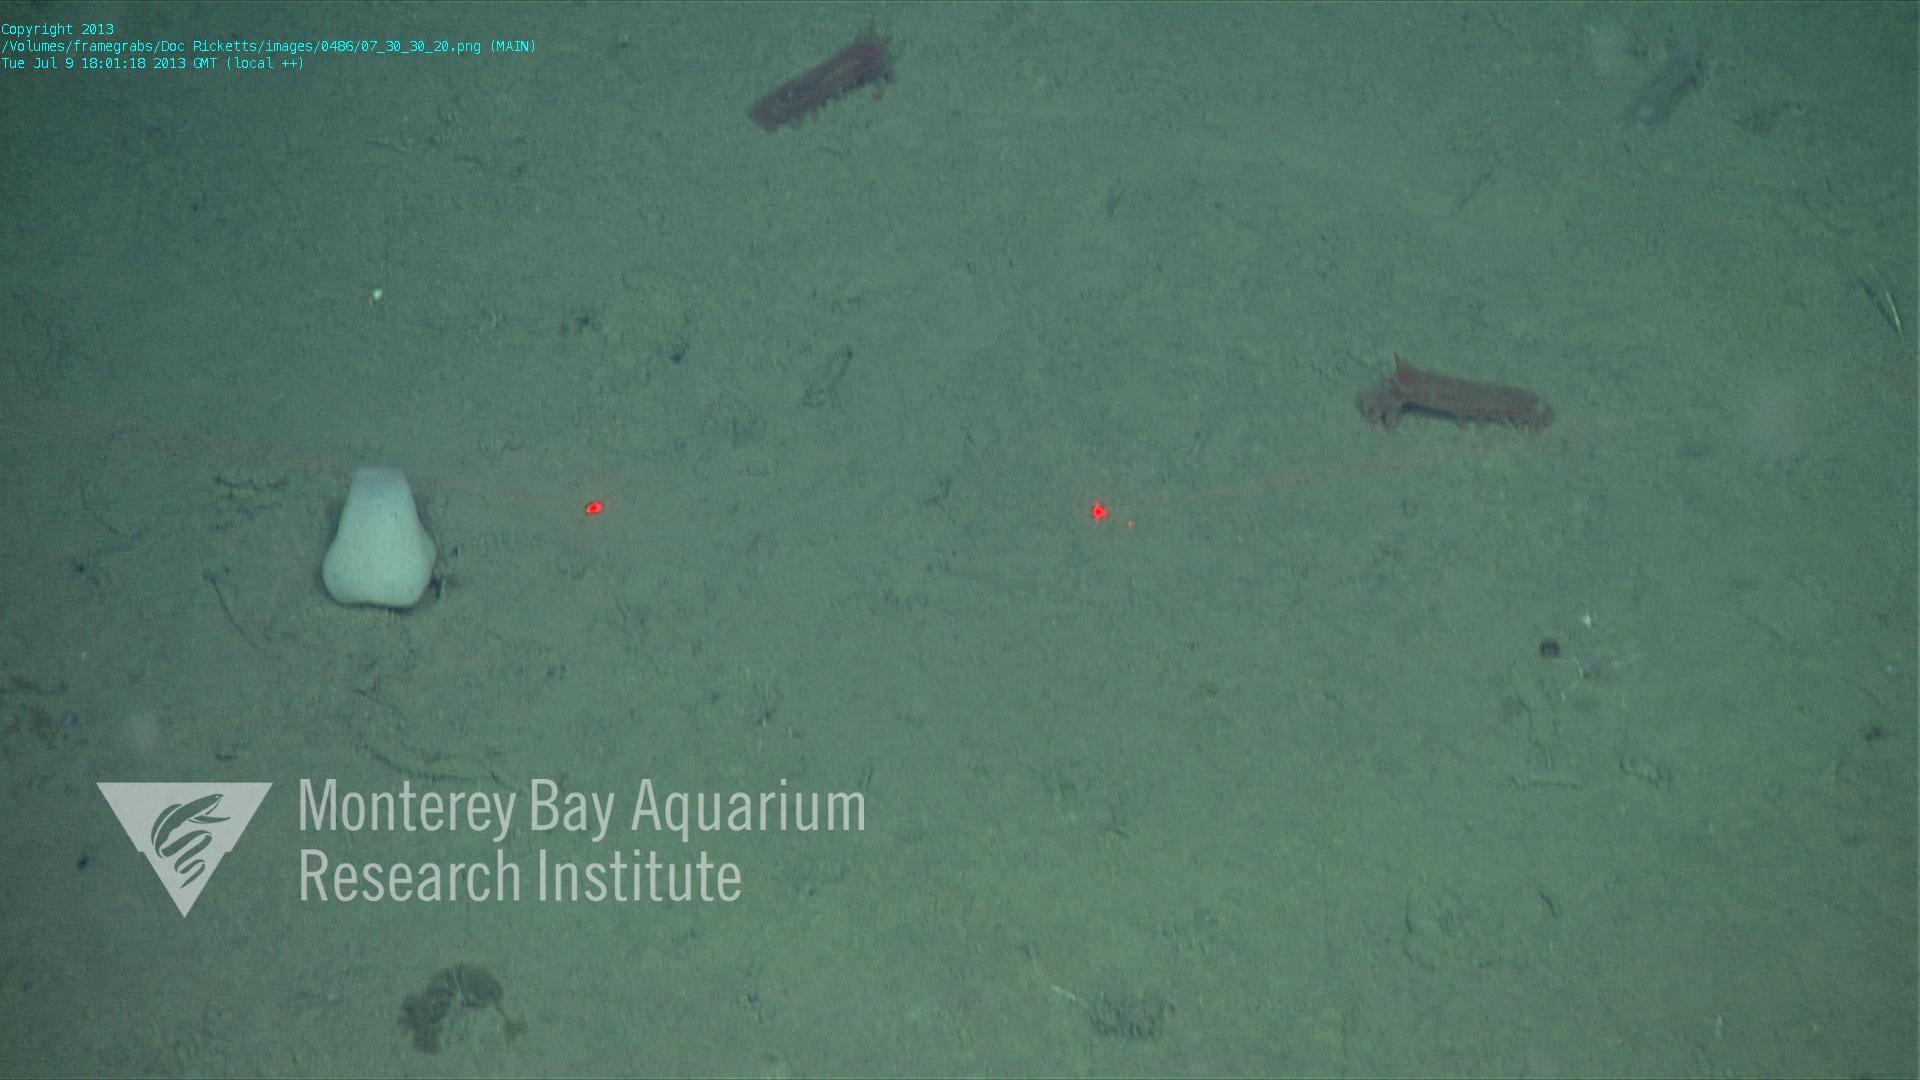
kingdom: Animalia
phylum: Porifera
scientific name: Porifera
